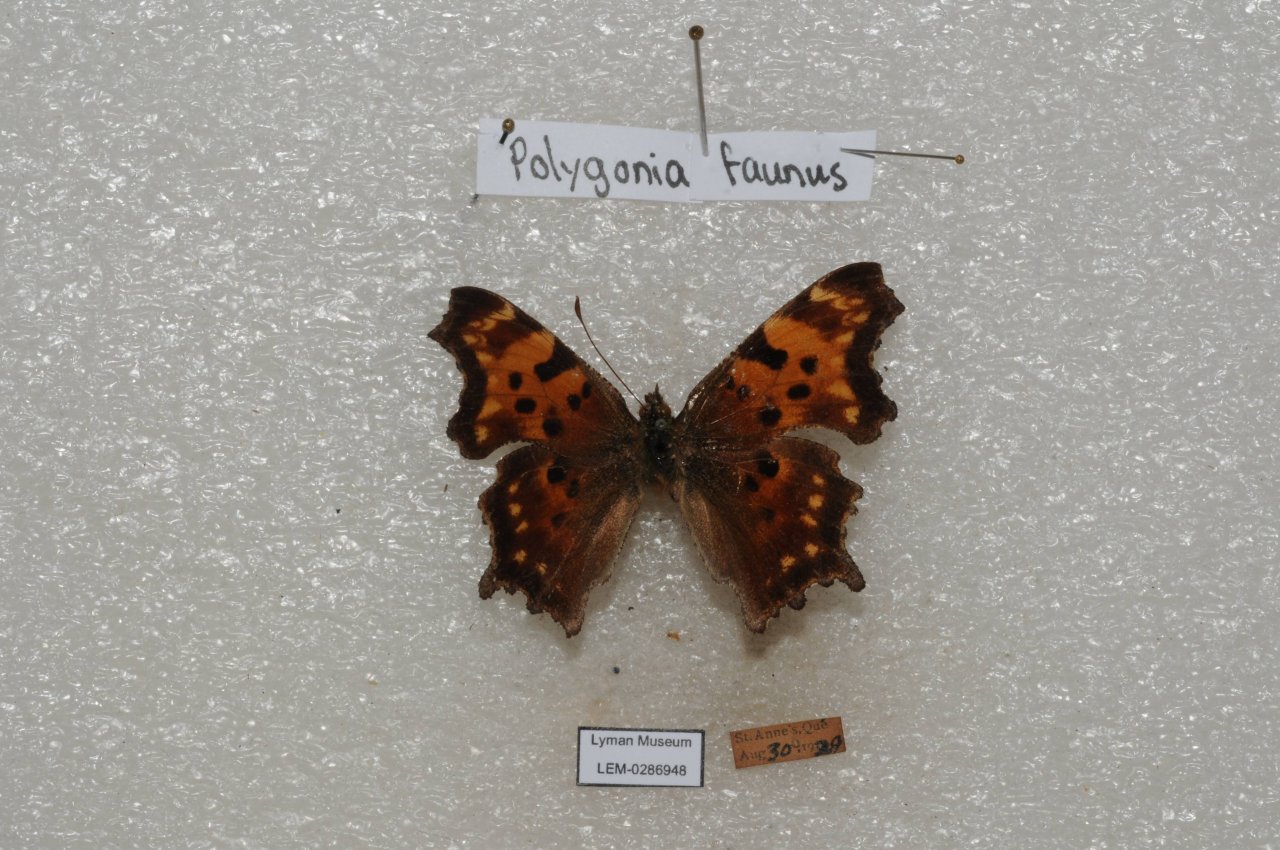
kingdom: Animalia
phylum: Arthropoda
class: Insecta
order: Lepidoptera
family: Nymphalidae
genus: Polygonia
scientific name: Polygonia faunus
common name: Green Comma
